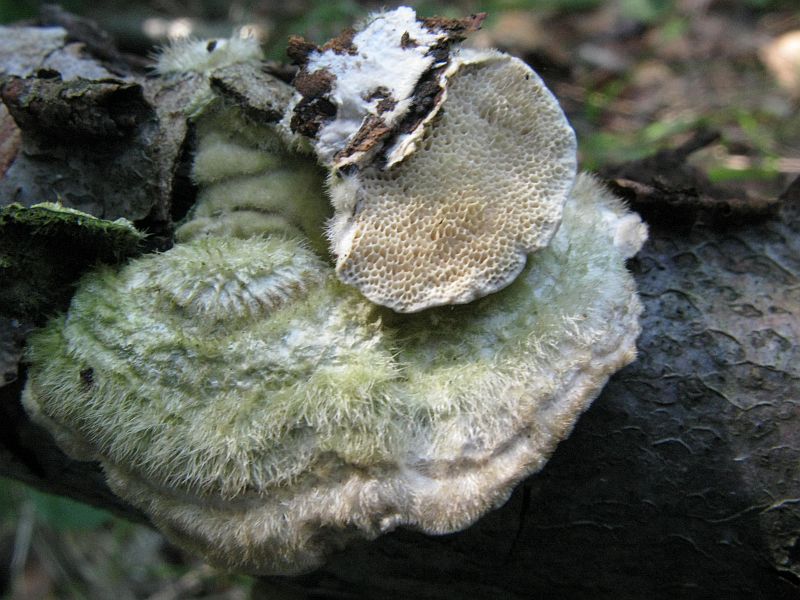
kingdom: Fungi
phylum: Basidiomycota
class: Agaricomycetes
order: Polyporales
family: Polyporaceae
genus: Trametes
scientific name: Trametes hirsuta
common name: håret læderporesvamp
